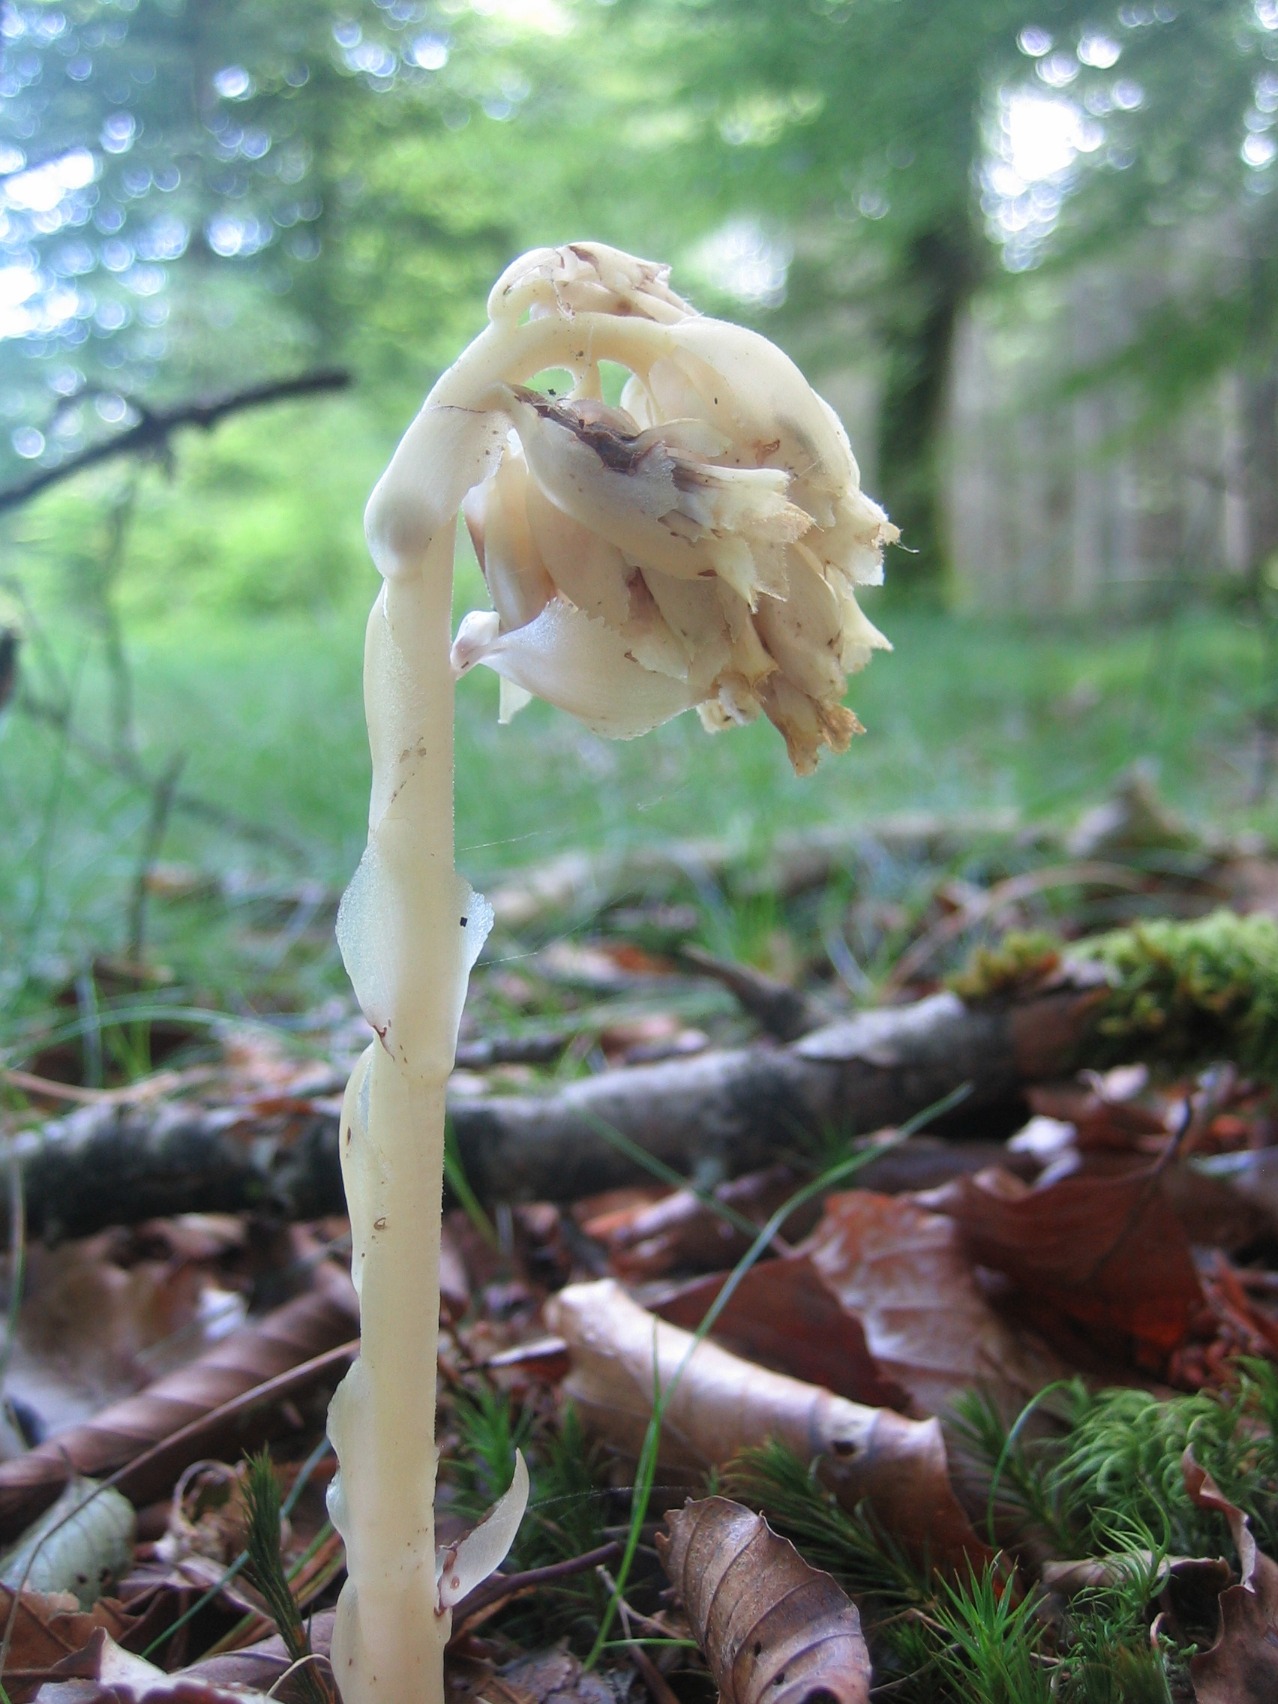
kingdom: Plantae
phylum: Tracheophyta
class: Magnoliopsida
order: Ericales
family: Ericaceae
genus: Hypopitys
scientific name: Hypopitys monotropa
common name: Håret snylterod
